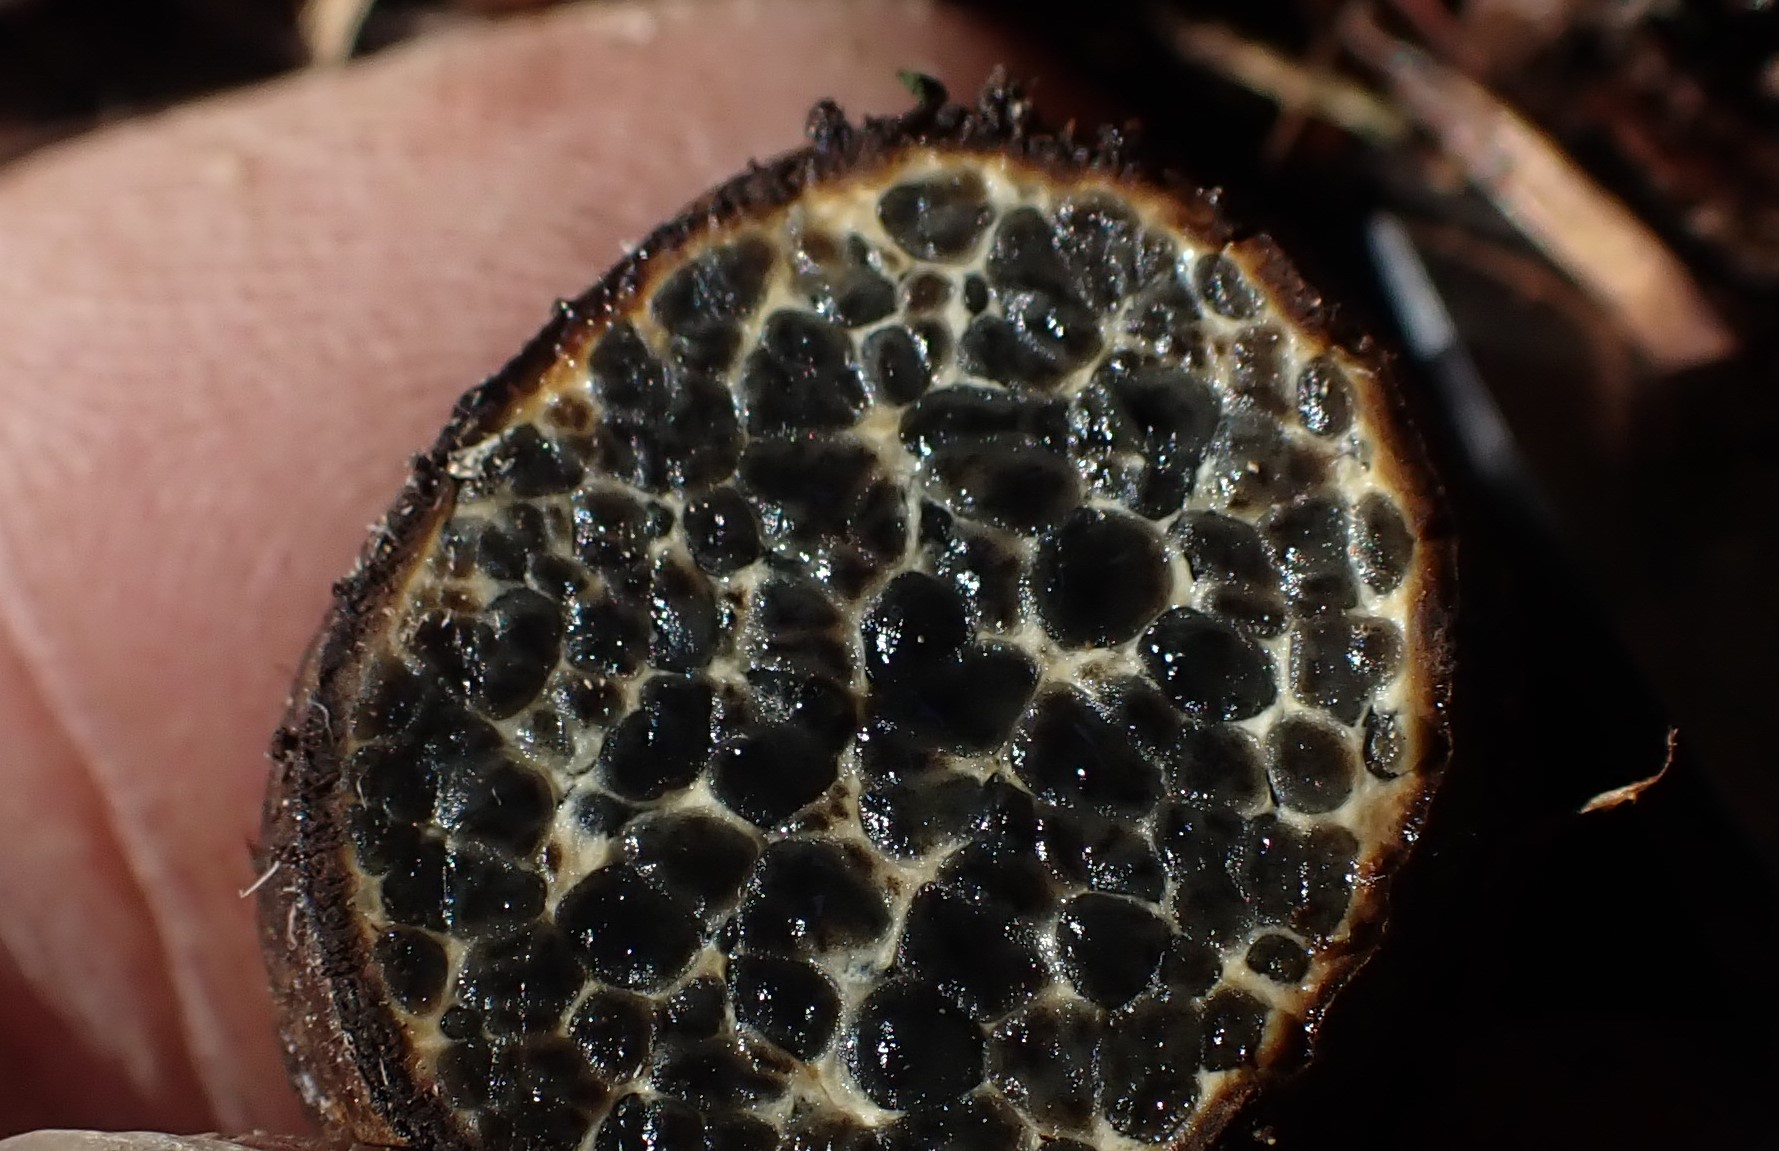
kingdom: Fungi
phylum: Basidiomycota
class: Agaricomycetes
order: Boletales
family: Paxillaceae
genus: Melanogaster
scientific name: Melanogaster ambiguus
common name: lille slimtrøffel
